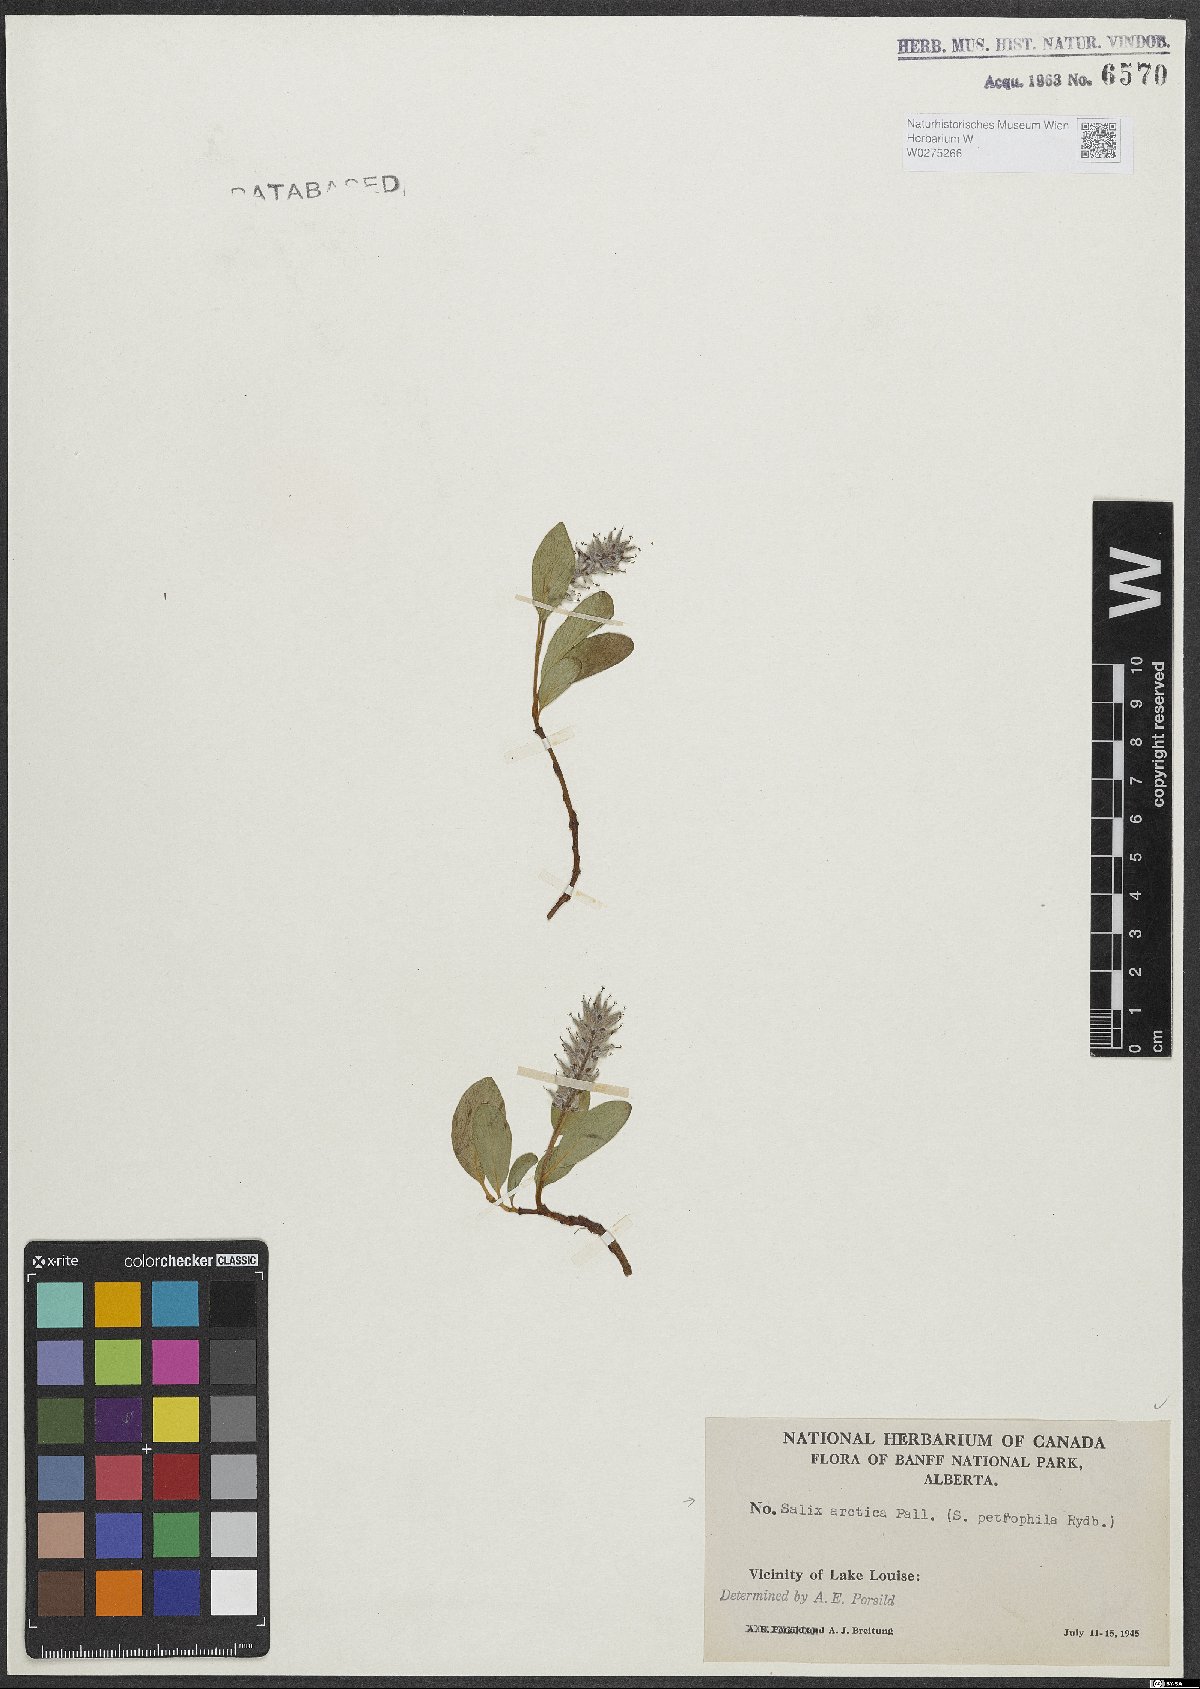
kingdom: Plantae
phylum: Tracheophyta
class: Magnoliopsida
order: Malpighiales
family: Salicaceae
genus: Salix
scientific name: Salix arctica
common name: Arctic willow
